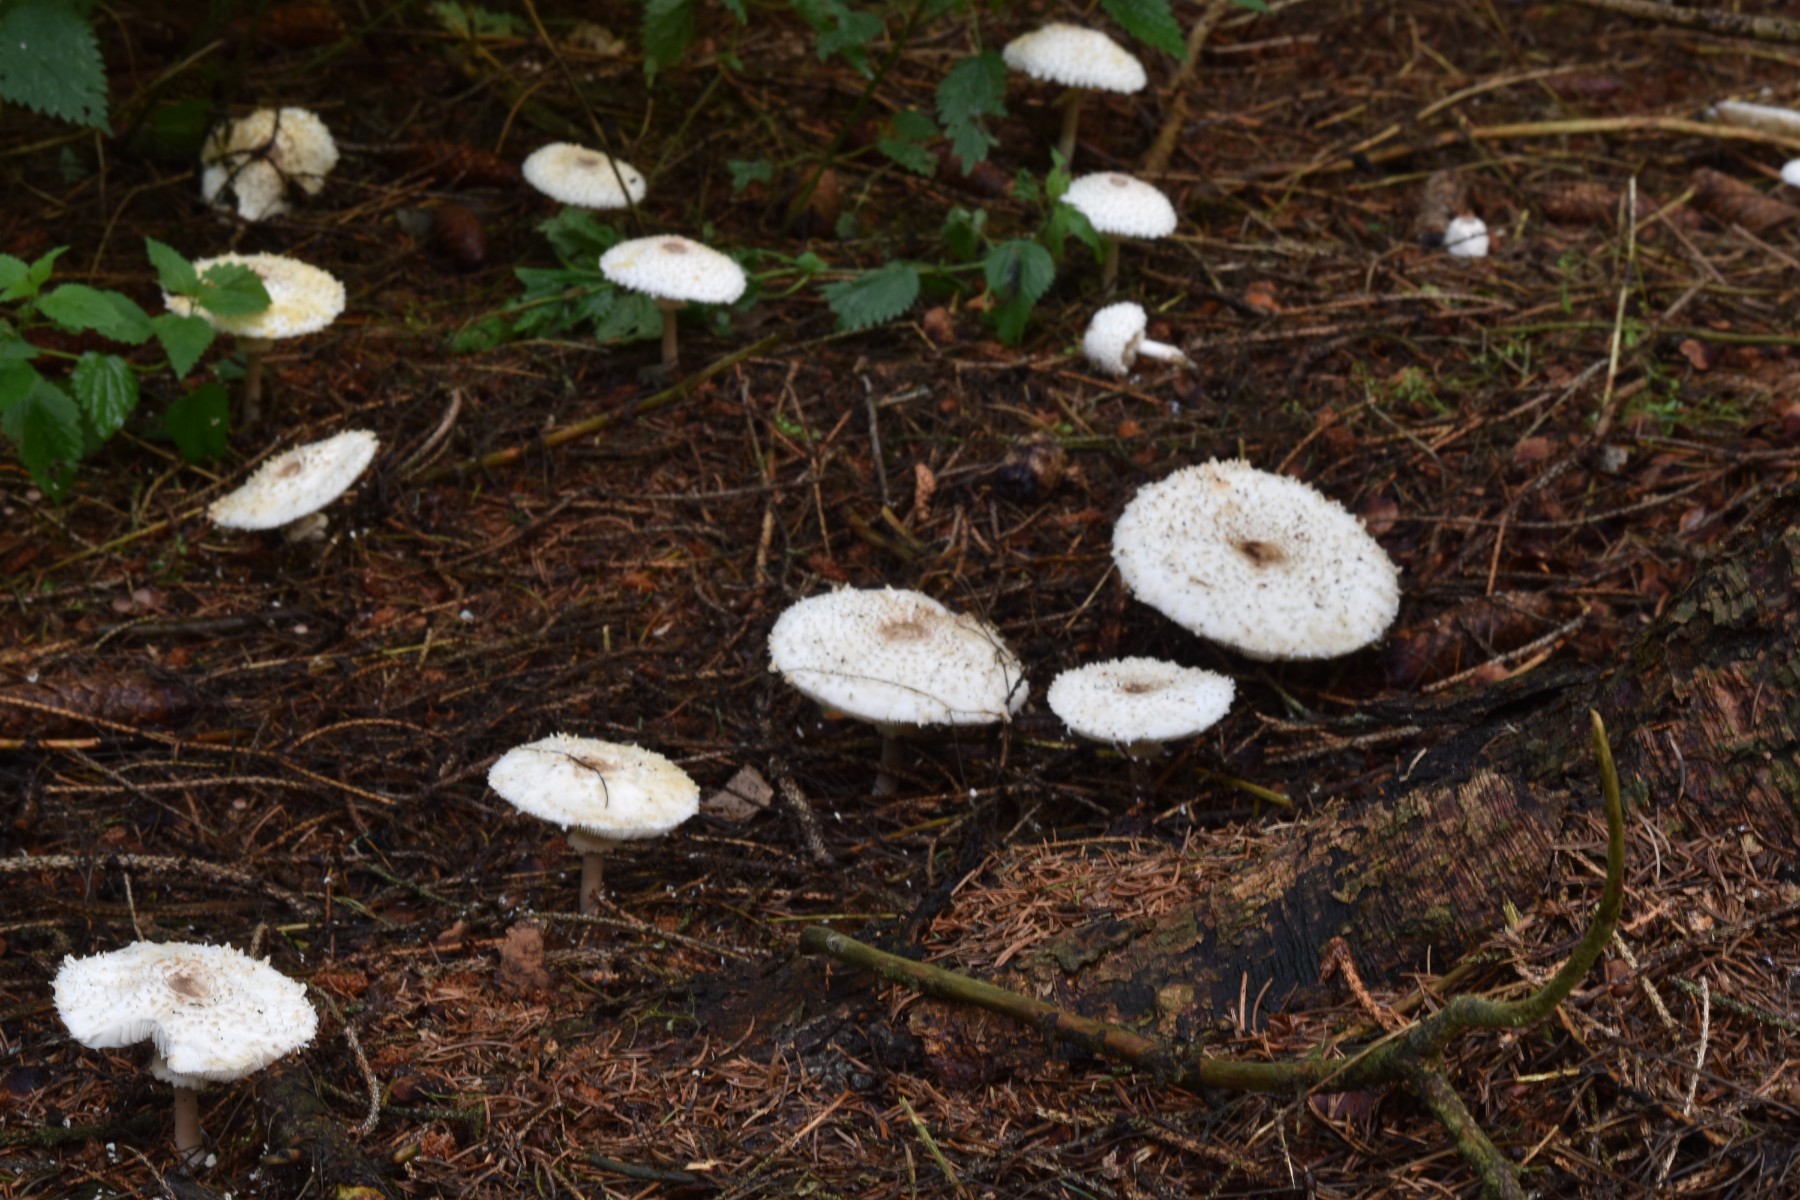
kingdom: Fungi
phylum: Basidiomycota
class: Agaricomycetes
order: Agaricales
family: Agaricaceae
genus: Leucoagaricus
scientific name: Leucoagaricus nympharum
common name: gran-silkehat
